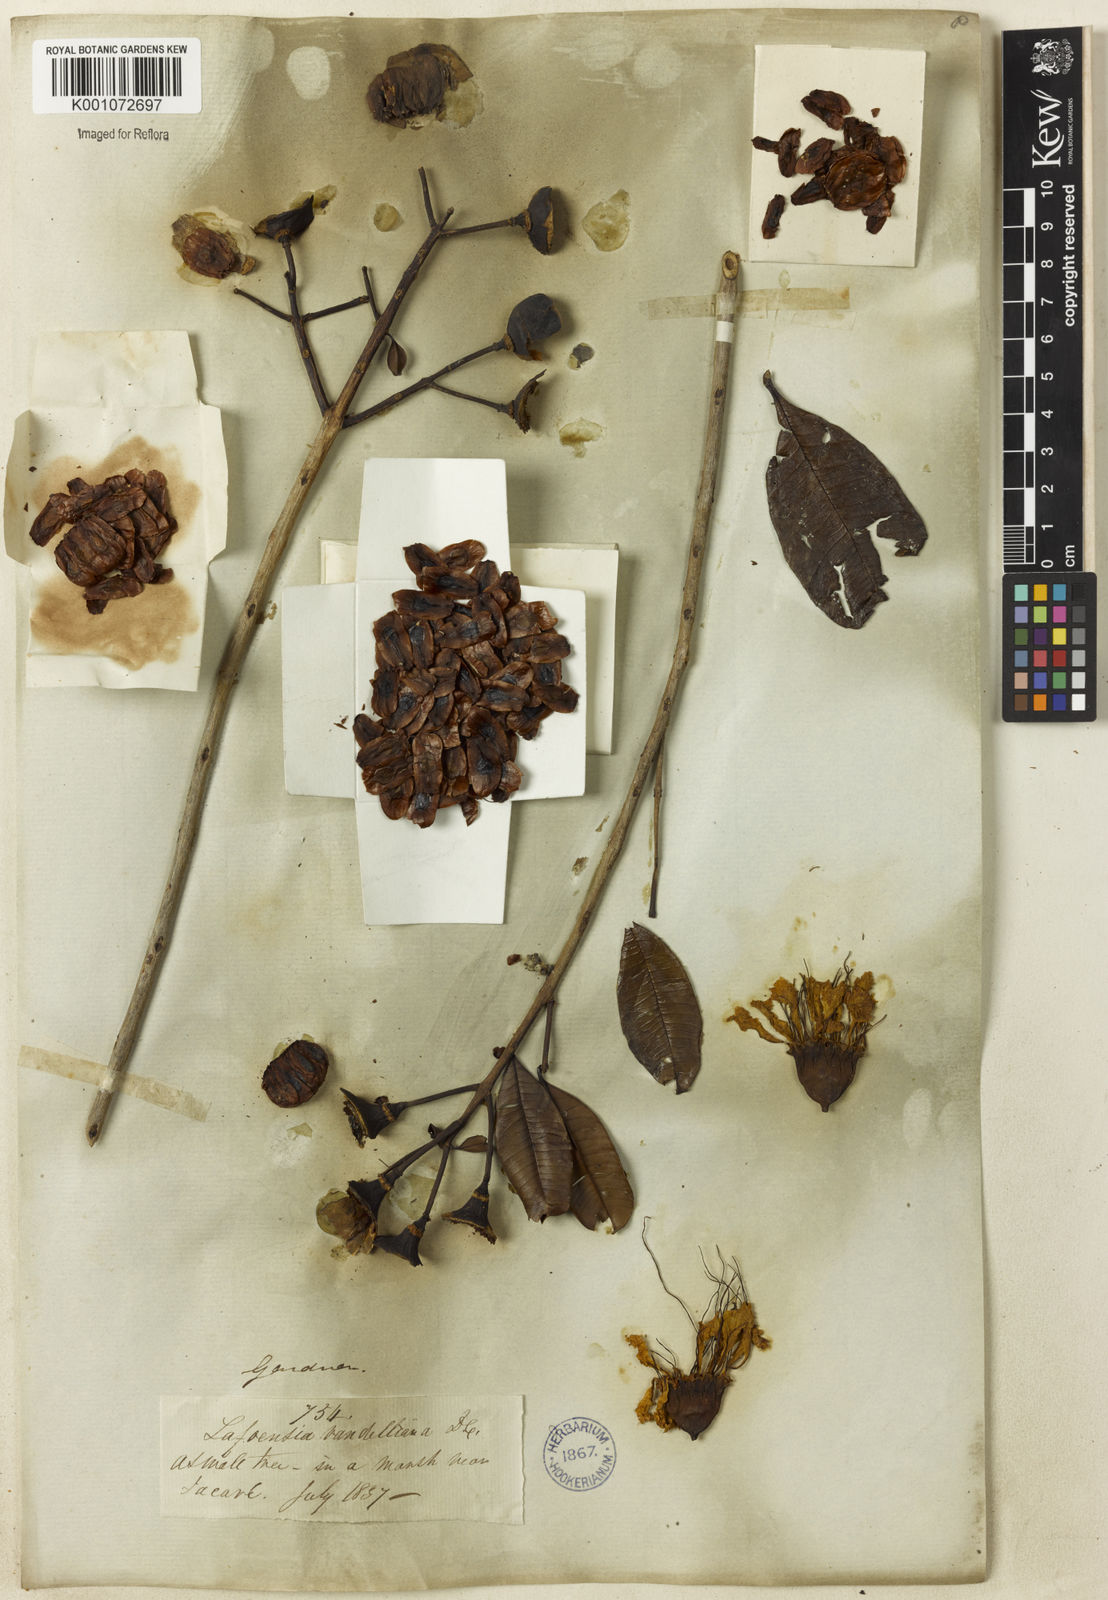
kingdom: Plantae
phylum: Tracheophyta
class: Magnoliopsida
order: Myrtales
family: Lythraceae
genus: Lafoensia
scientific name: Lafoensia vandelliana
